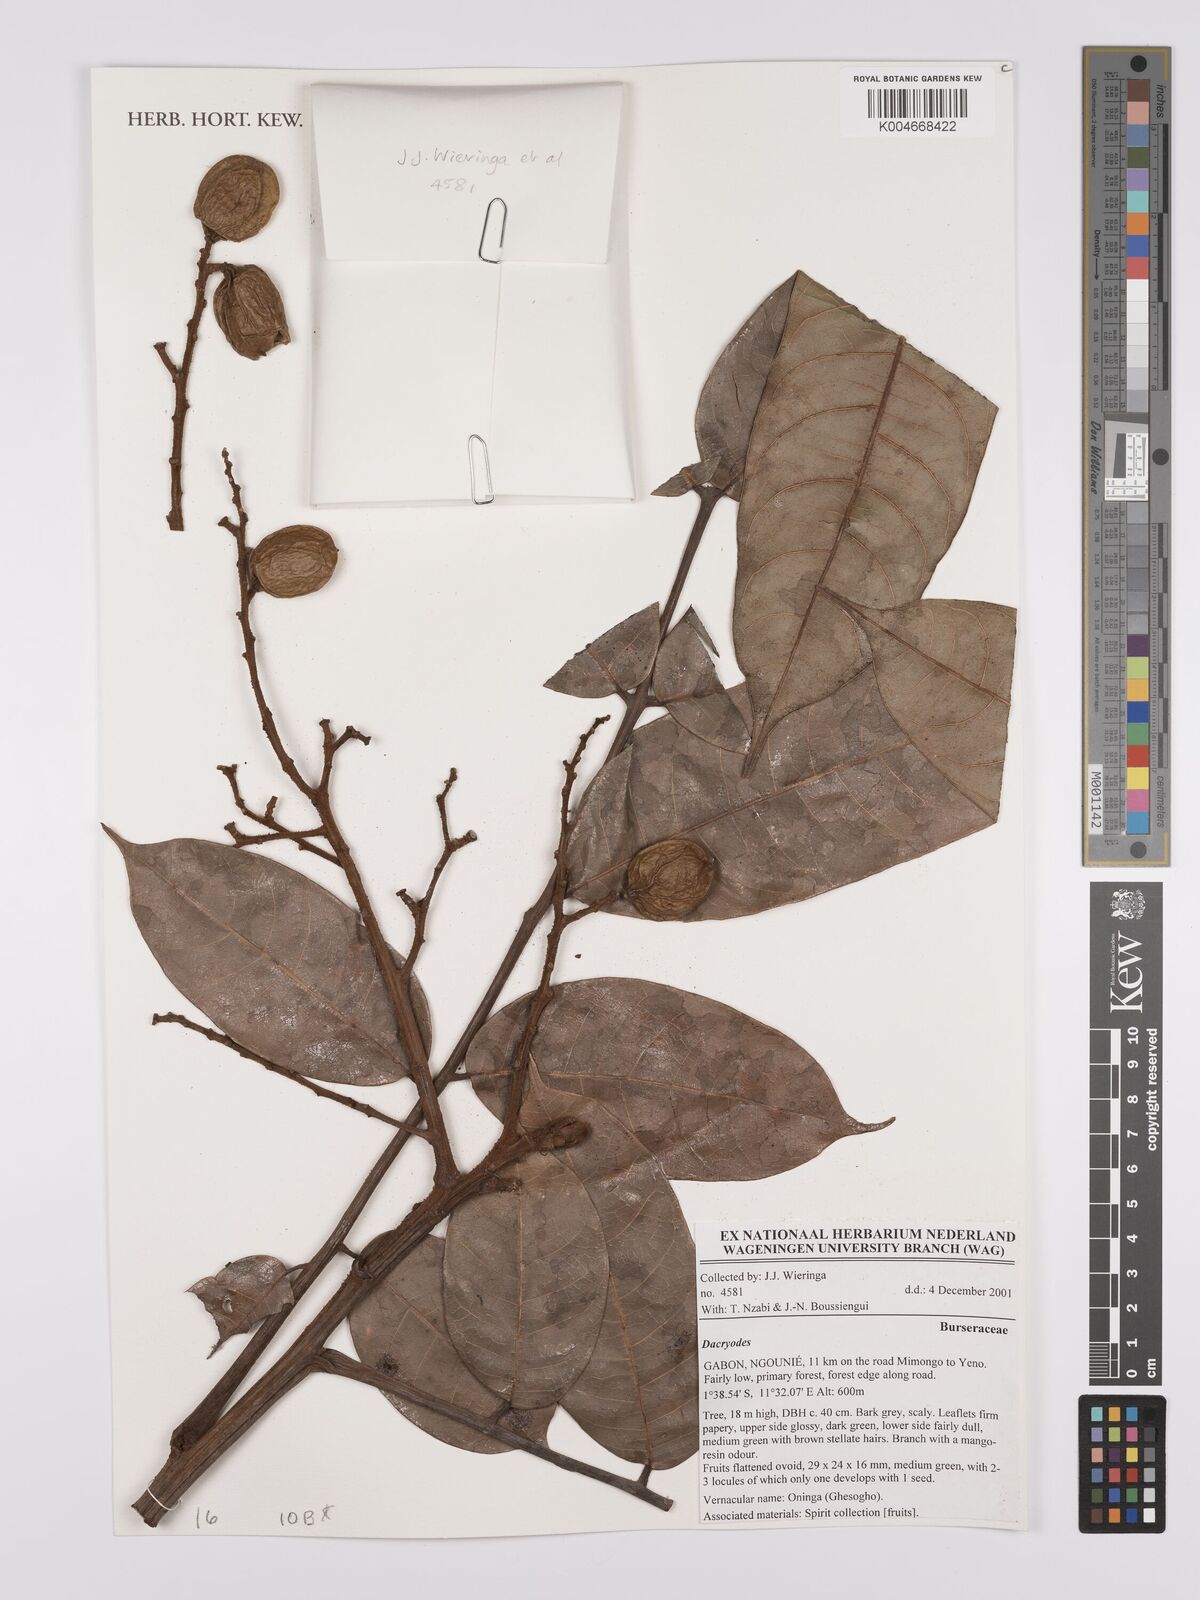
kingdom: Plantae
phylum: Tracheophyta
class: Magnoliopsida
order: Sapindales
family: Burseraceae
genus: Dacryodes
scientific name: Dacryodes
